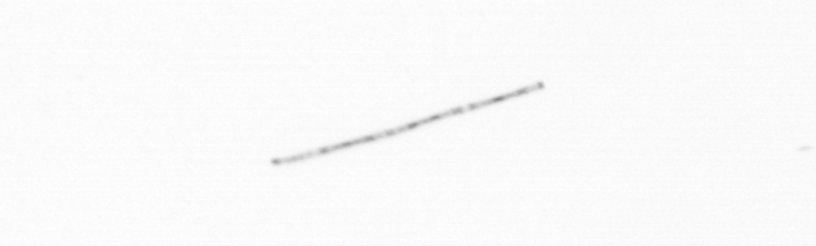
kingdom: Chromista
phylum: Ochrophyta
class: Bacillariophyceae
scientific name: Bacillariophyceae
